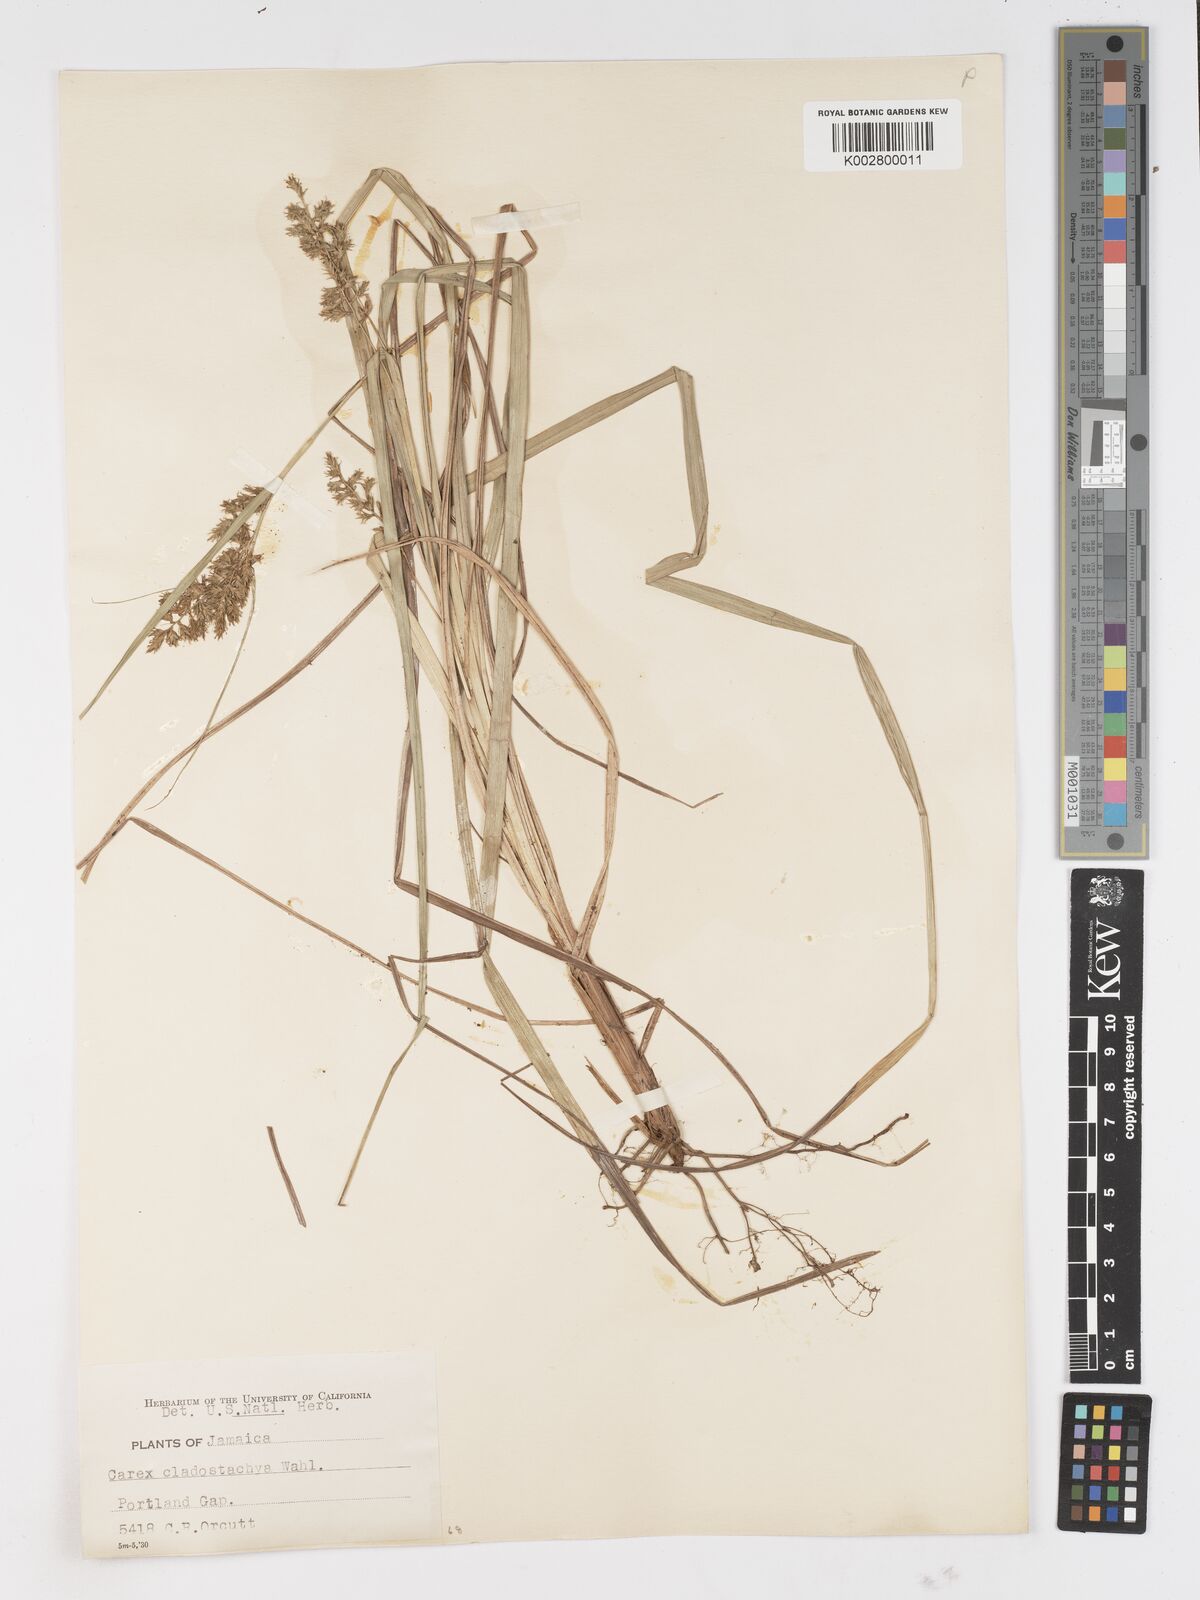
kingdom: Plantae
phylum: Tracheophyta
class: Liliopsida
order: Poales
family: Cyperaceae
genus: Carex
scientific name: Carex polystachya
